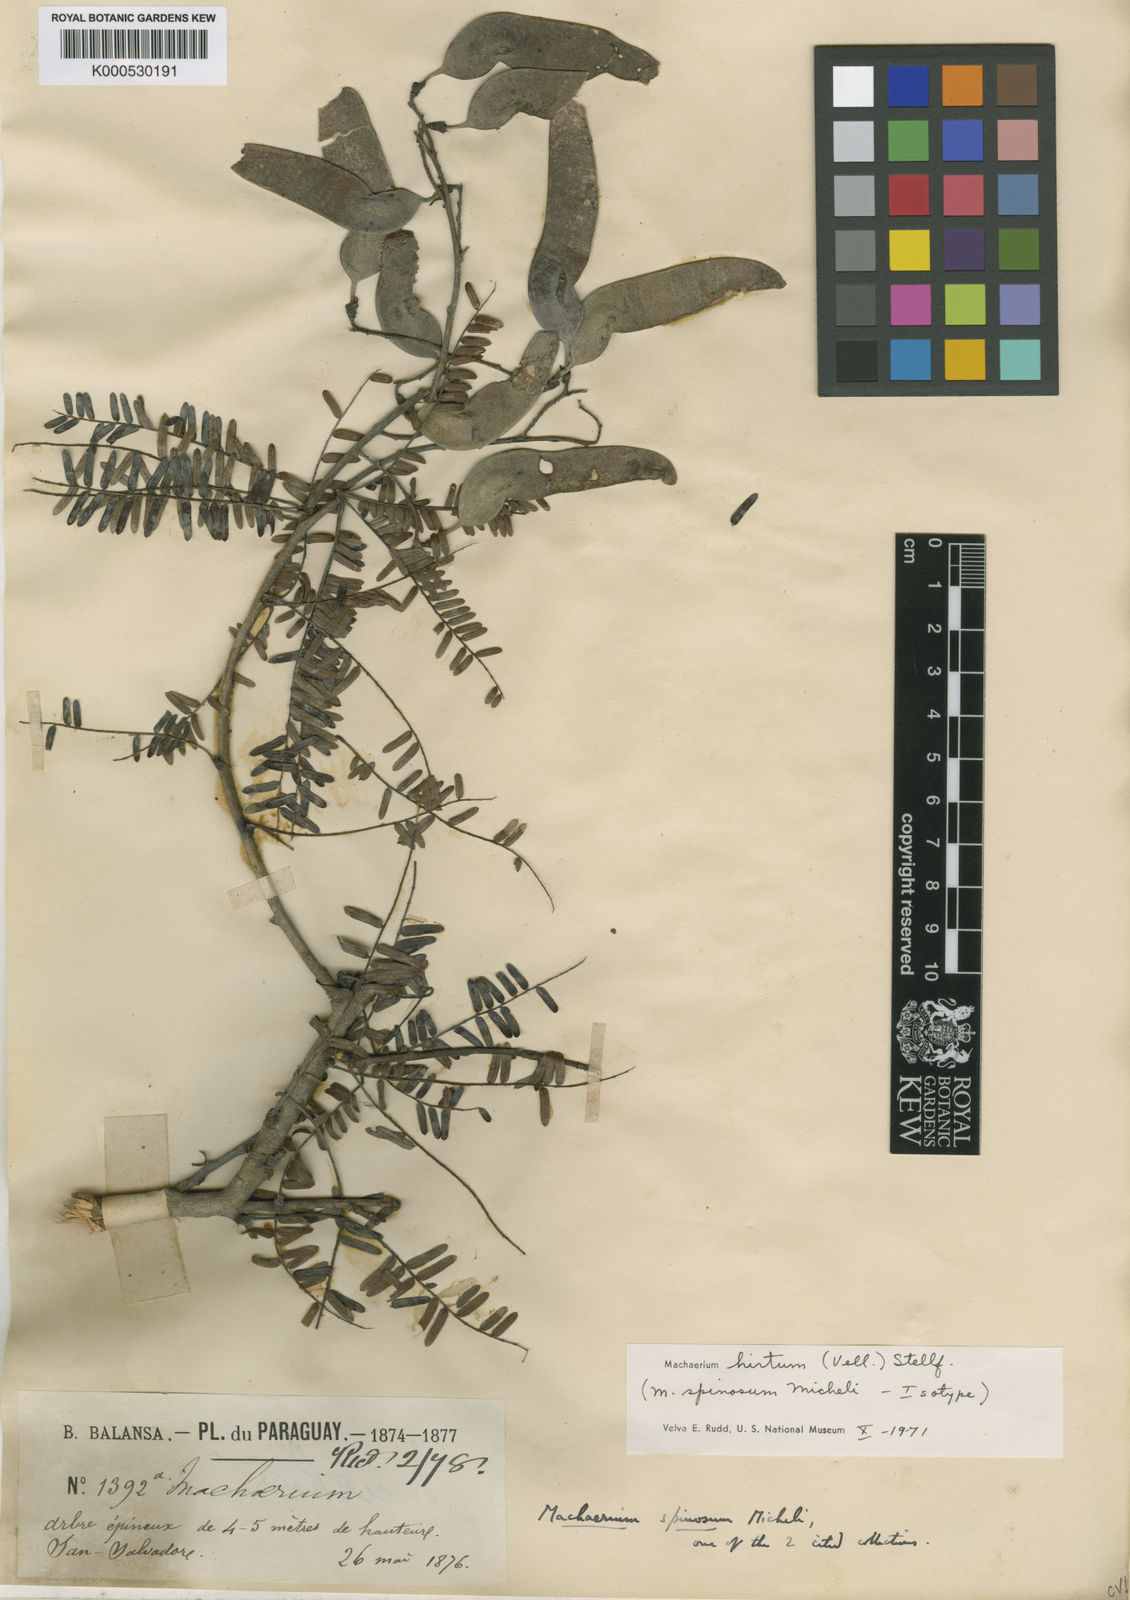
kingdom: Plantae
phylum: Tracheophyta
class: Magnoliopsida
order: Fabales
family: Fabaceae
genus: Machaerium
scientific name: Machaerium hirtum
